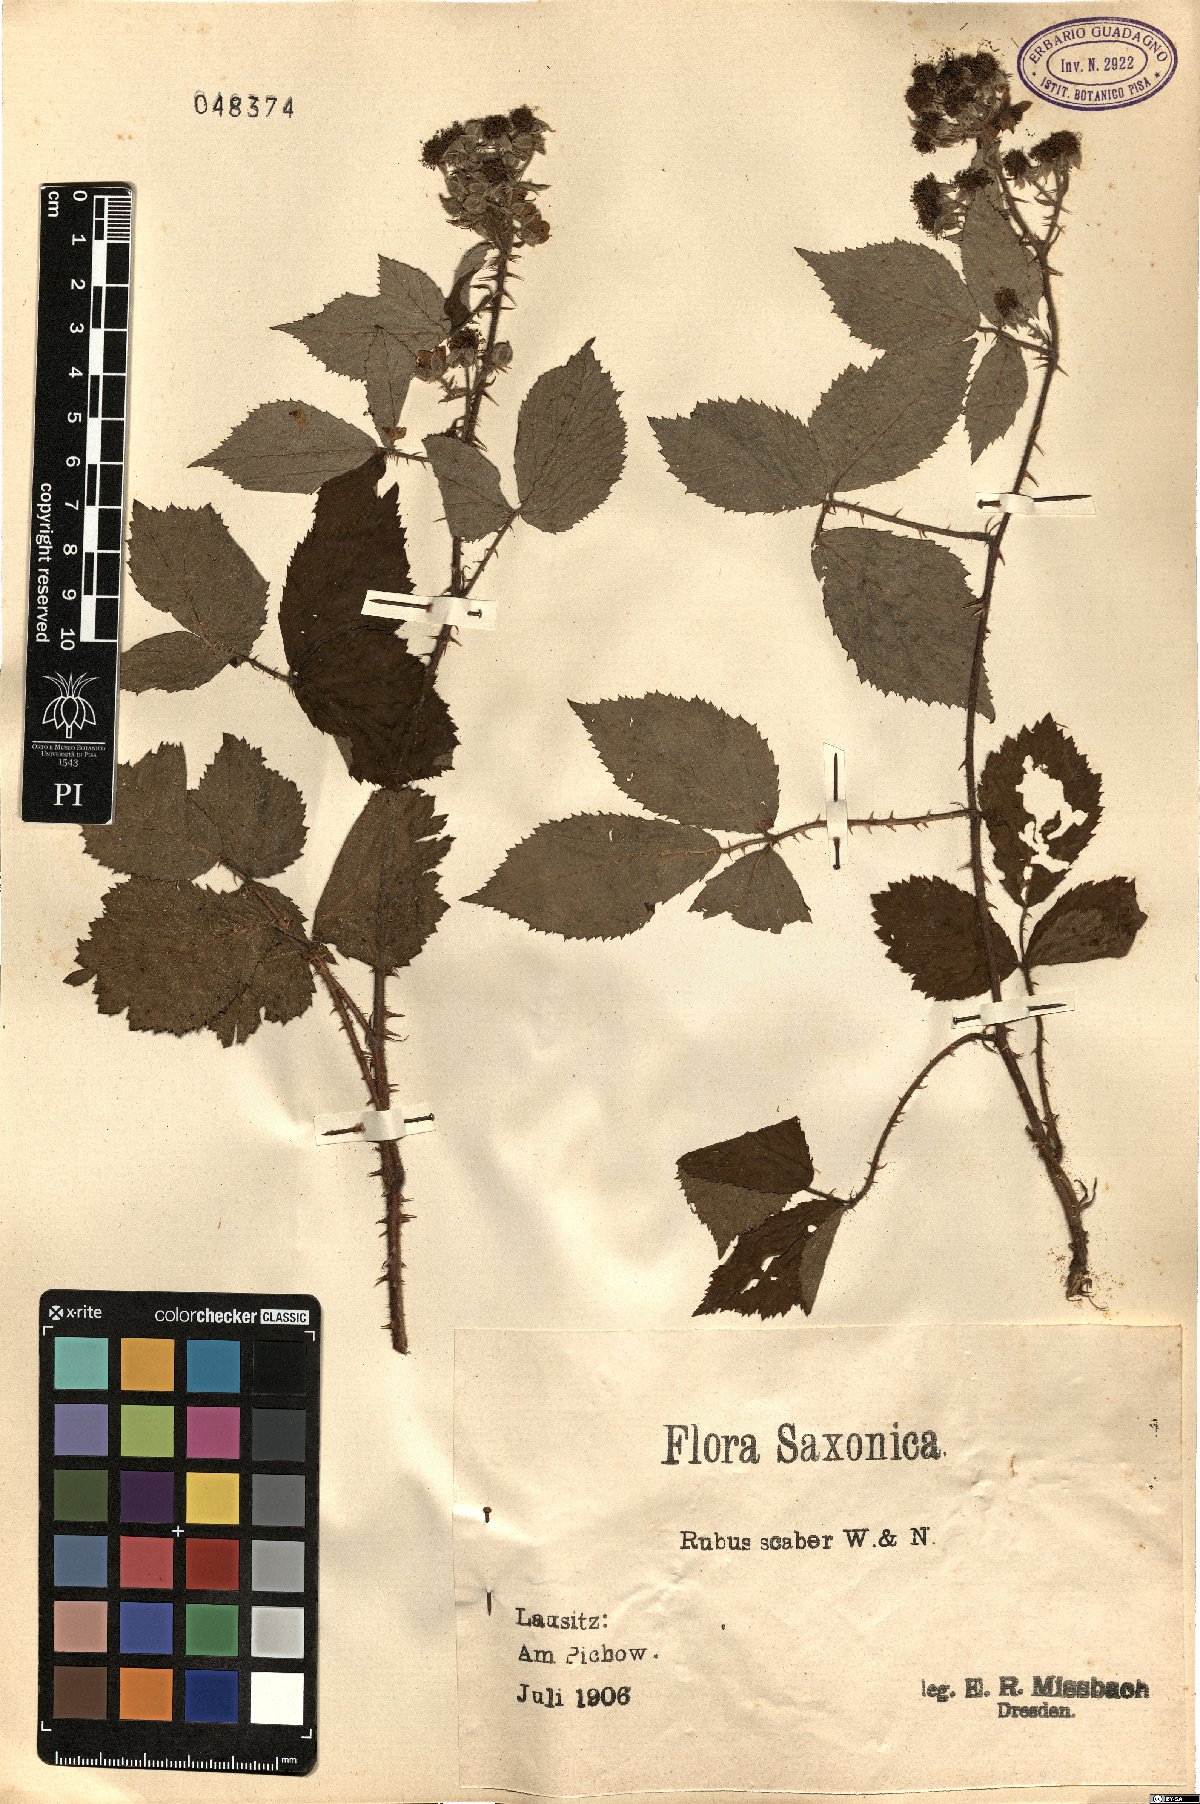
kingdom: Plantae
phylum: Tracheophyta
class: Magnoliopsida
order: Rosales
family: Rosaceae
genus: Rubus
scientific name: Rubus scaber
